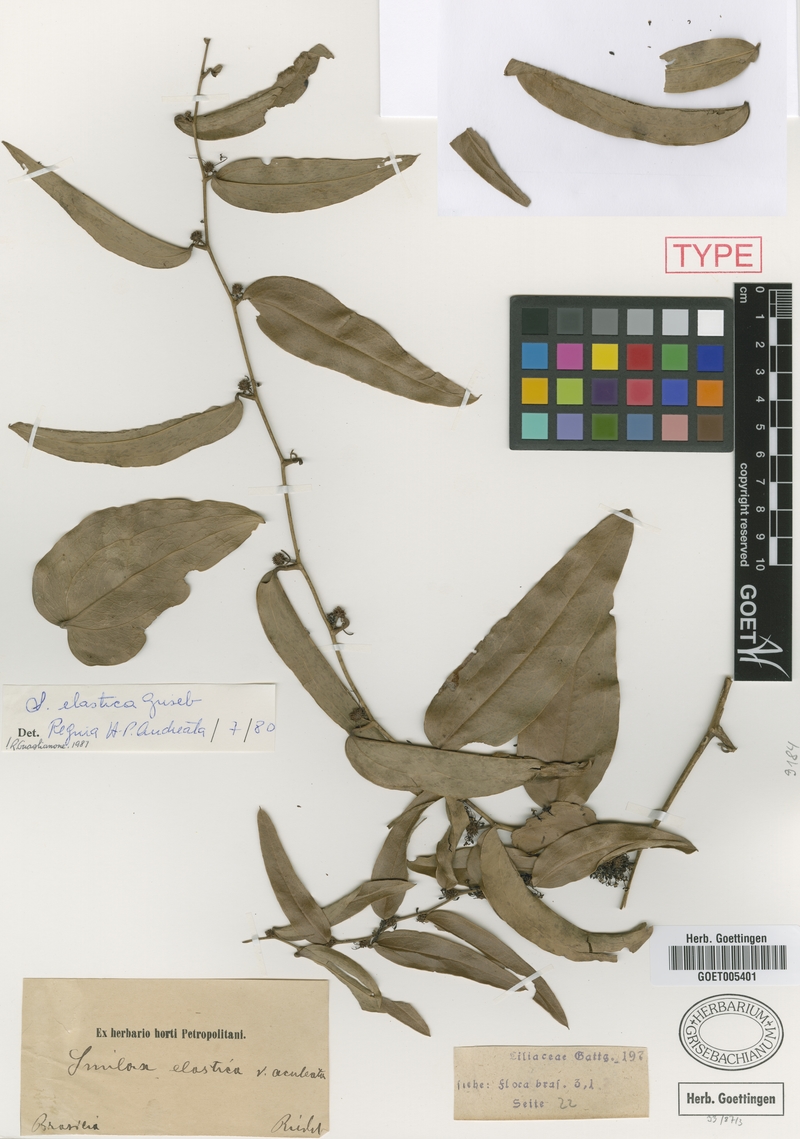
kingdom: Plantae
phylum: Tracheophyta
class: Liliopsida
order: Liliales
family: Smilacaceae
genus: Smilax
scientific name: Smilax elastica
